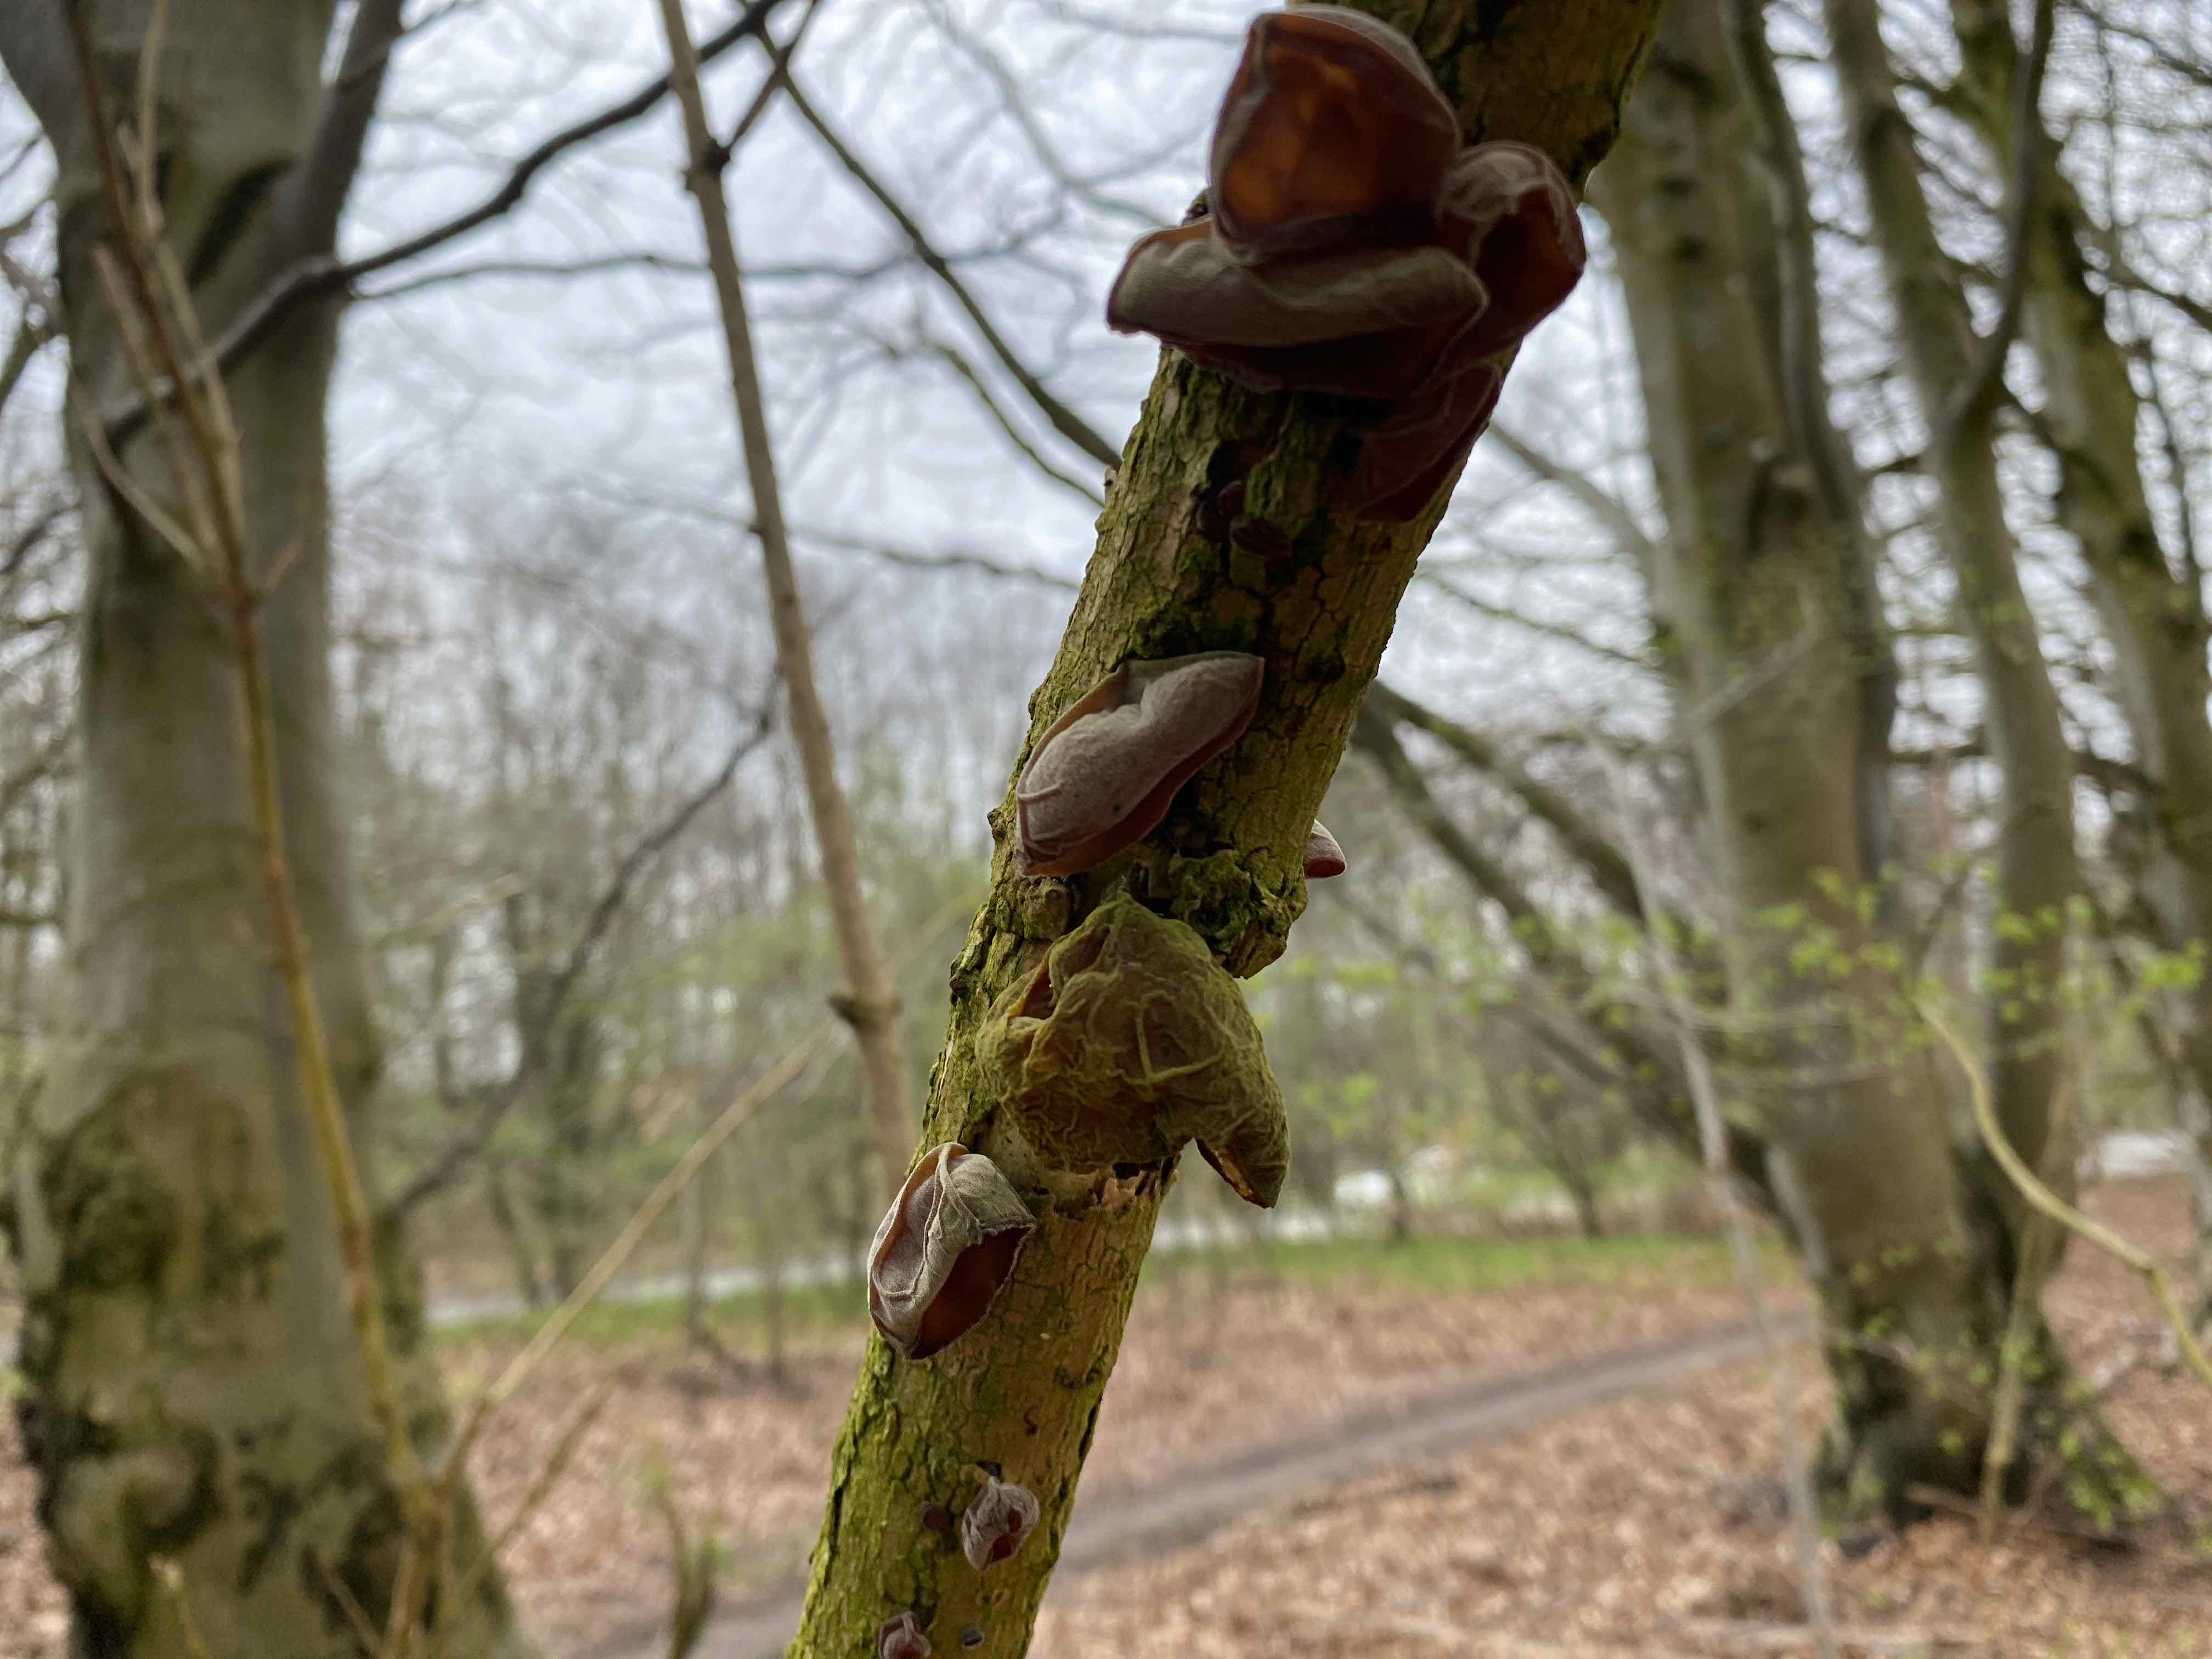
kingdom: Fungi
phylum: Basidiomycota
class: Agaricomycetes
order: Auriculariales
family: Auriculariaceae
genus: Auricularia
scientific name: Auricularia auricula-judae
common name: almindelig judasøre
